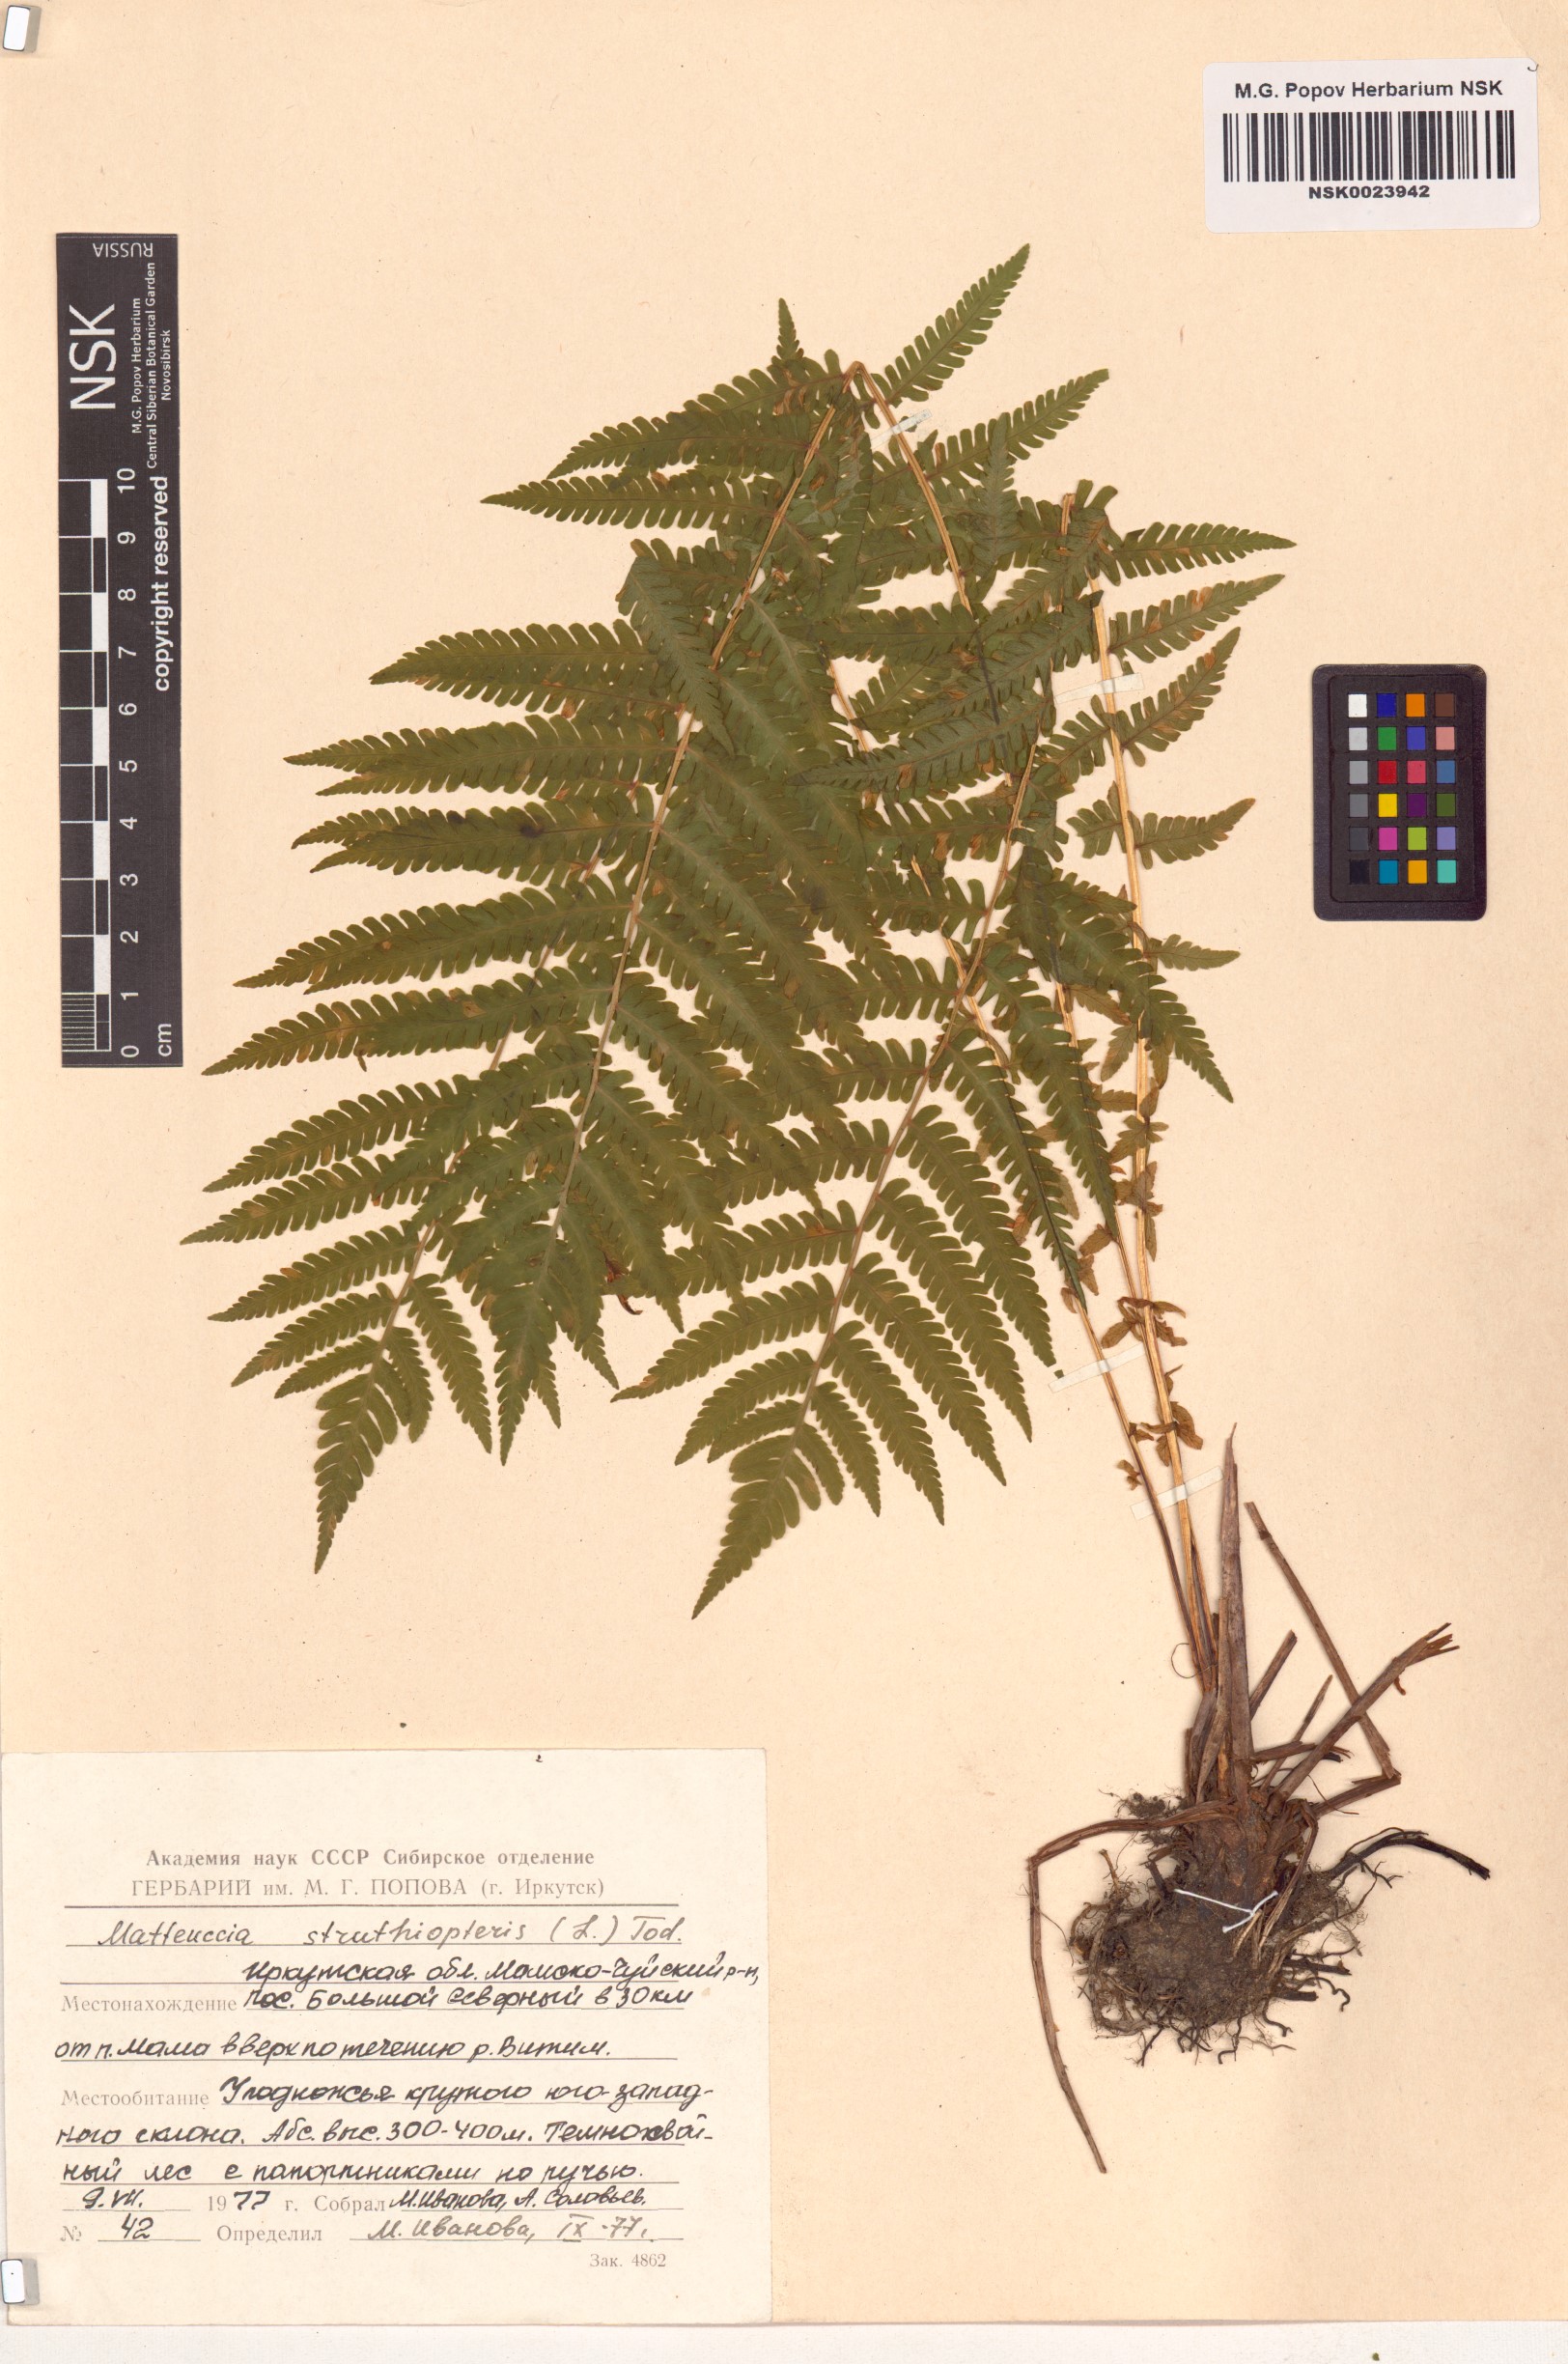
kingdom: Plantae
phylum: Tracheophyta
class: Polypodiopsida
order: Polypodiales
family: Onocleaceae
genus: Matteuccia
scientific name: Matteuccia struthiopteris
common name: Ostrich fern
